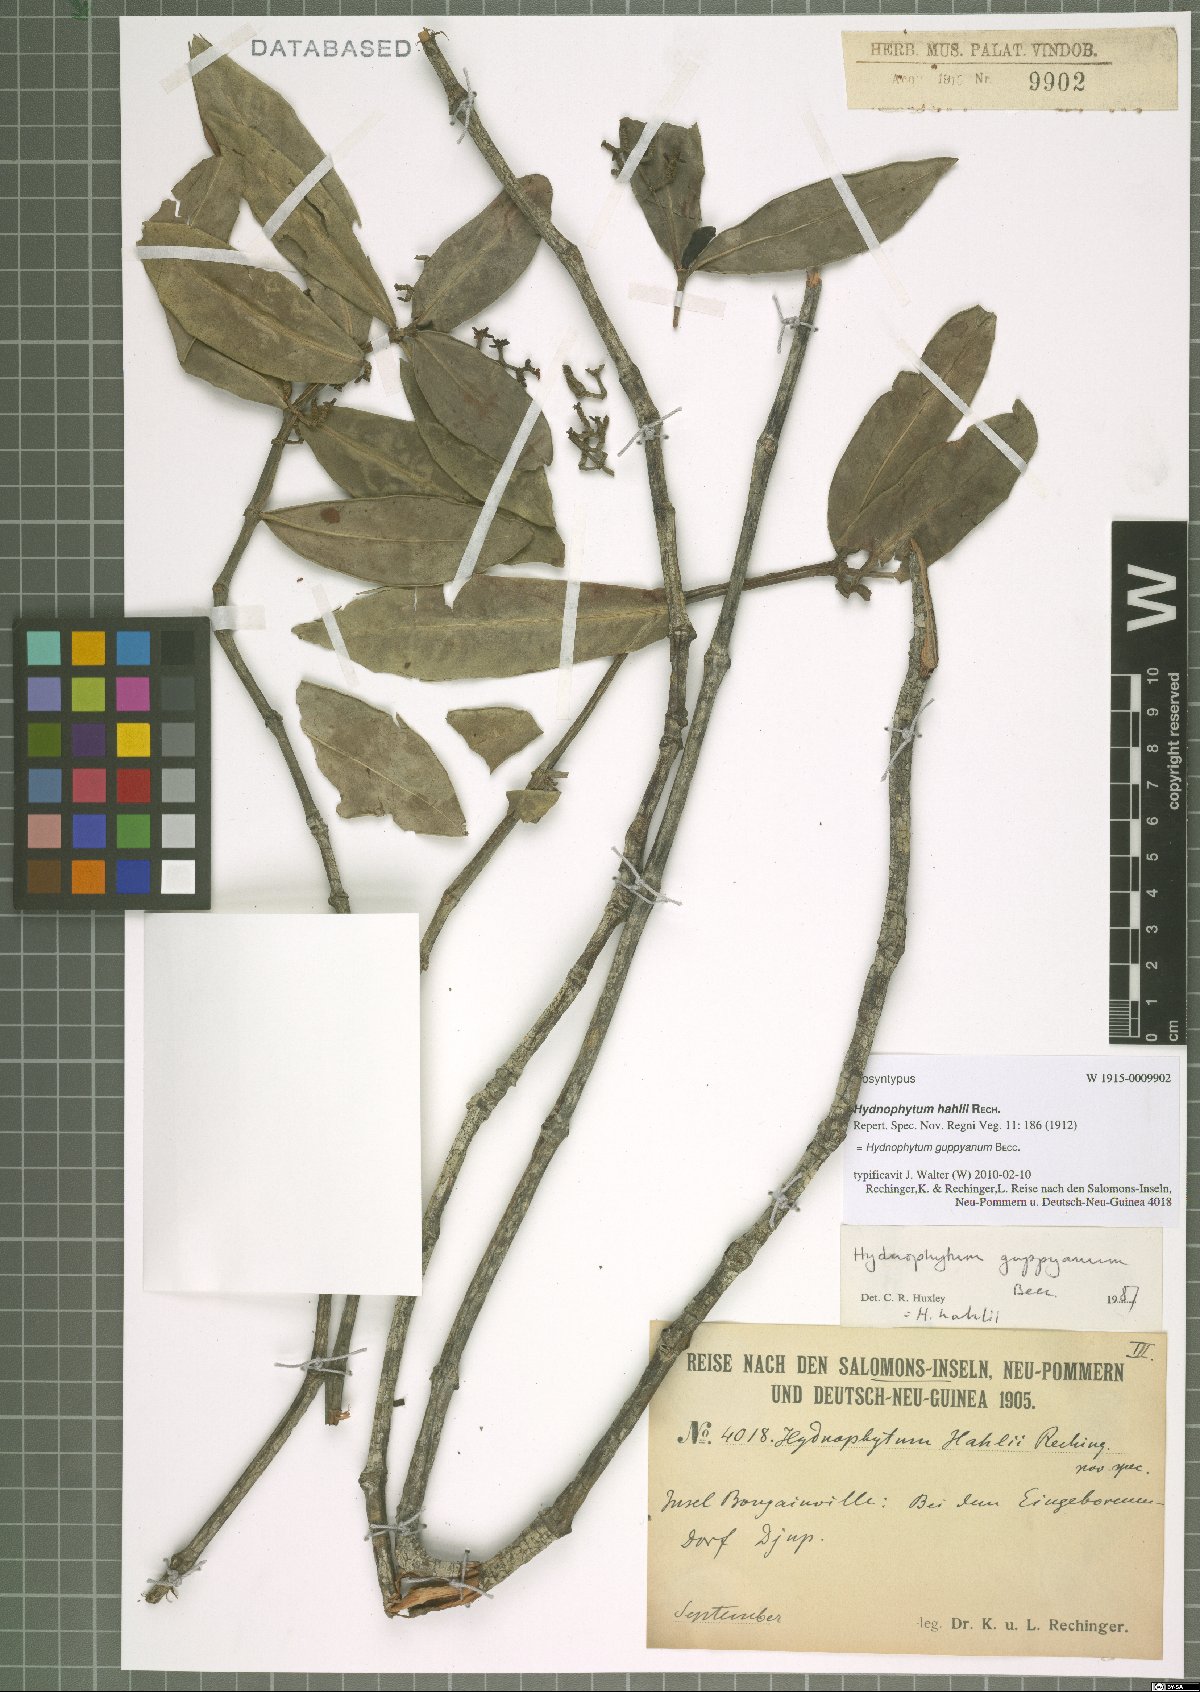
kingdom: Plantae
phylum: Tracheophyta
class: Magnoliopsida
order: Gentianales
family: Rubiaceae
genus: Squamellaria
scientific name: Squamellaria guppyana
